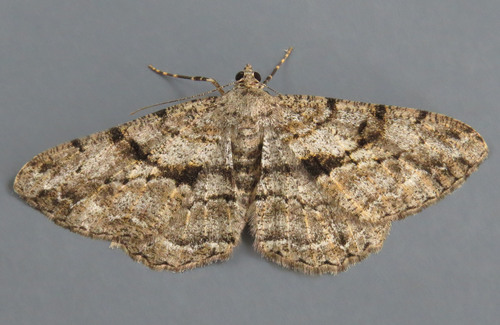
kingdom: Animalia
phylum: Arthropoda
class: Insecta
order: Lepidoptera
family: Geometridae
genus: Peribatodes
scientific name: Peribatodes rhomboidaria
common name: Willow beauty
